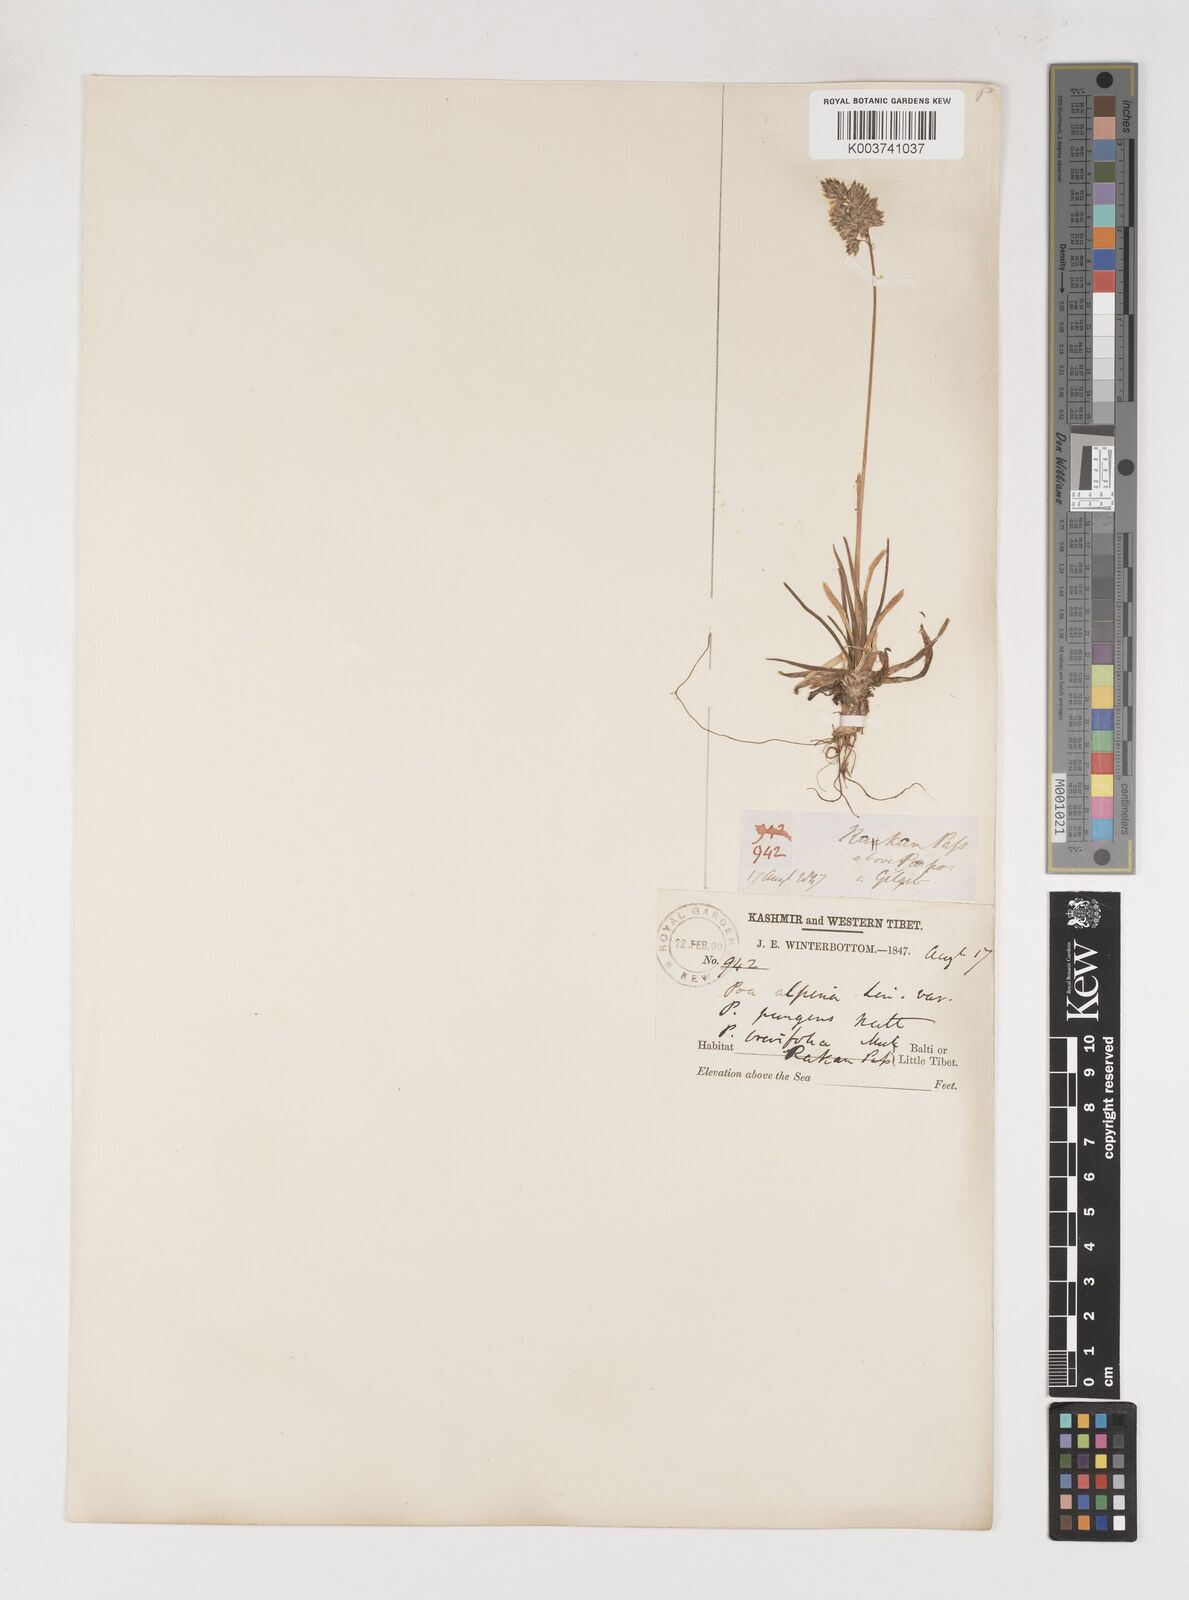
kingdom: Plantae
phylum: Tracheophyta
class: Liliopsida
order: Poales
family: Poaceae
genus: Poa
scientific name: Poa alpina
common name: Alpine bluegrass
